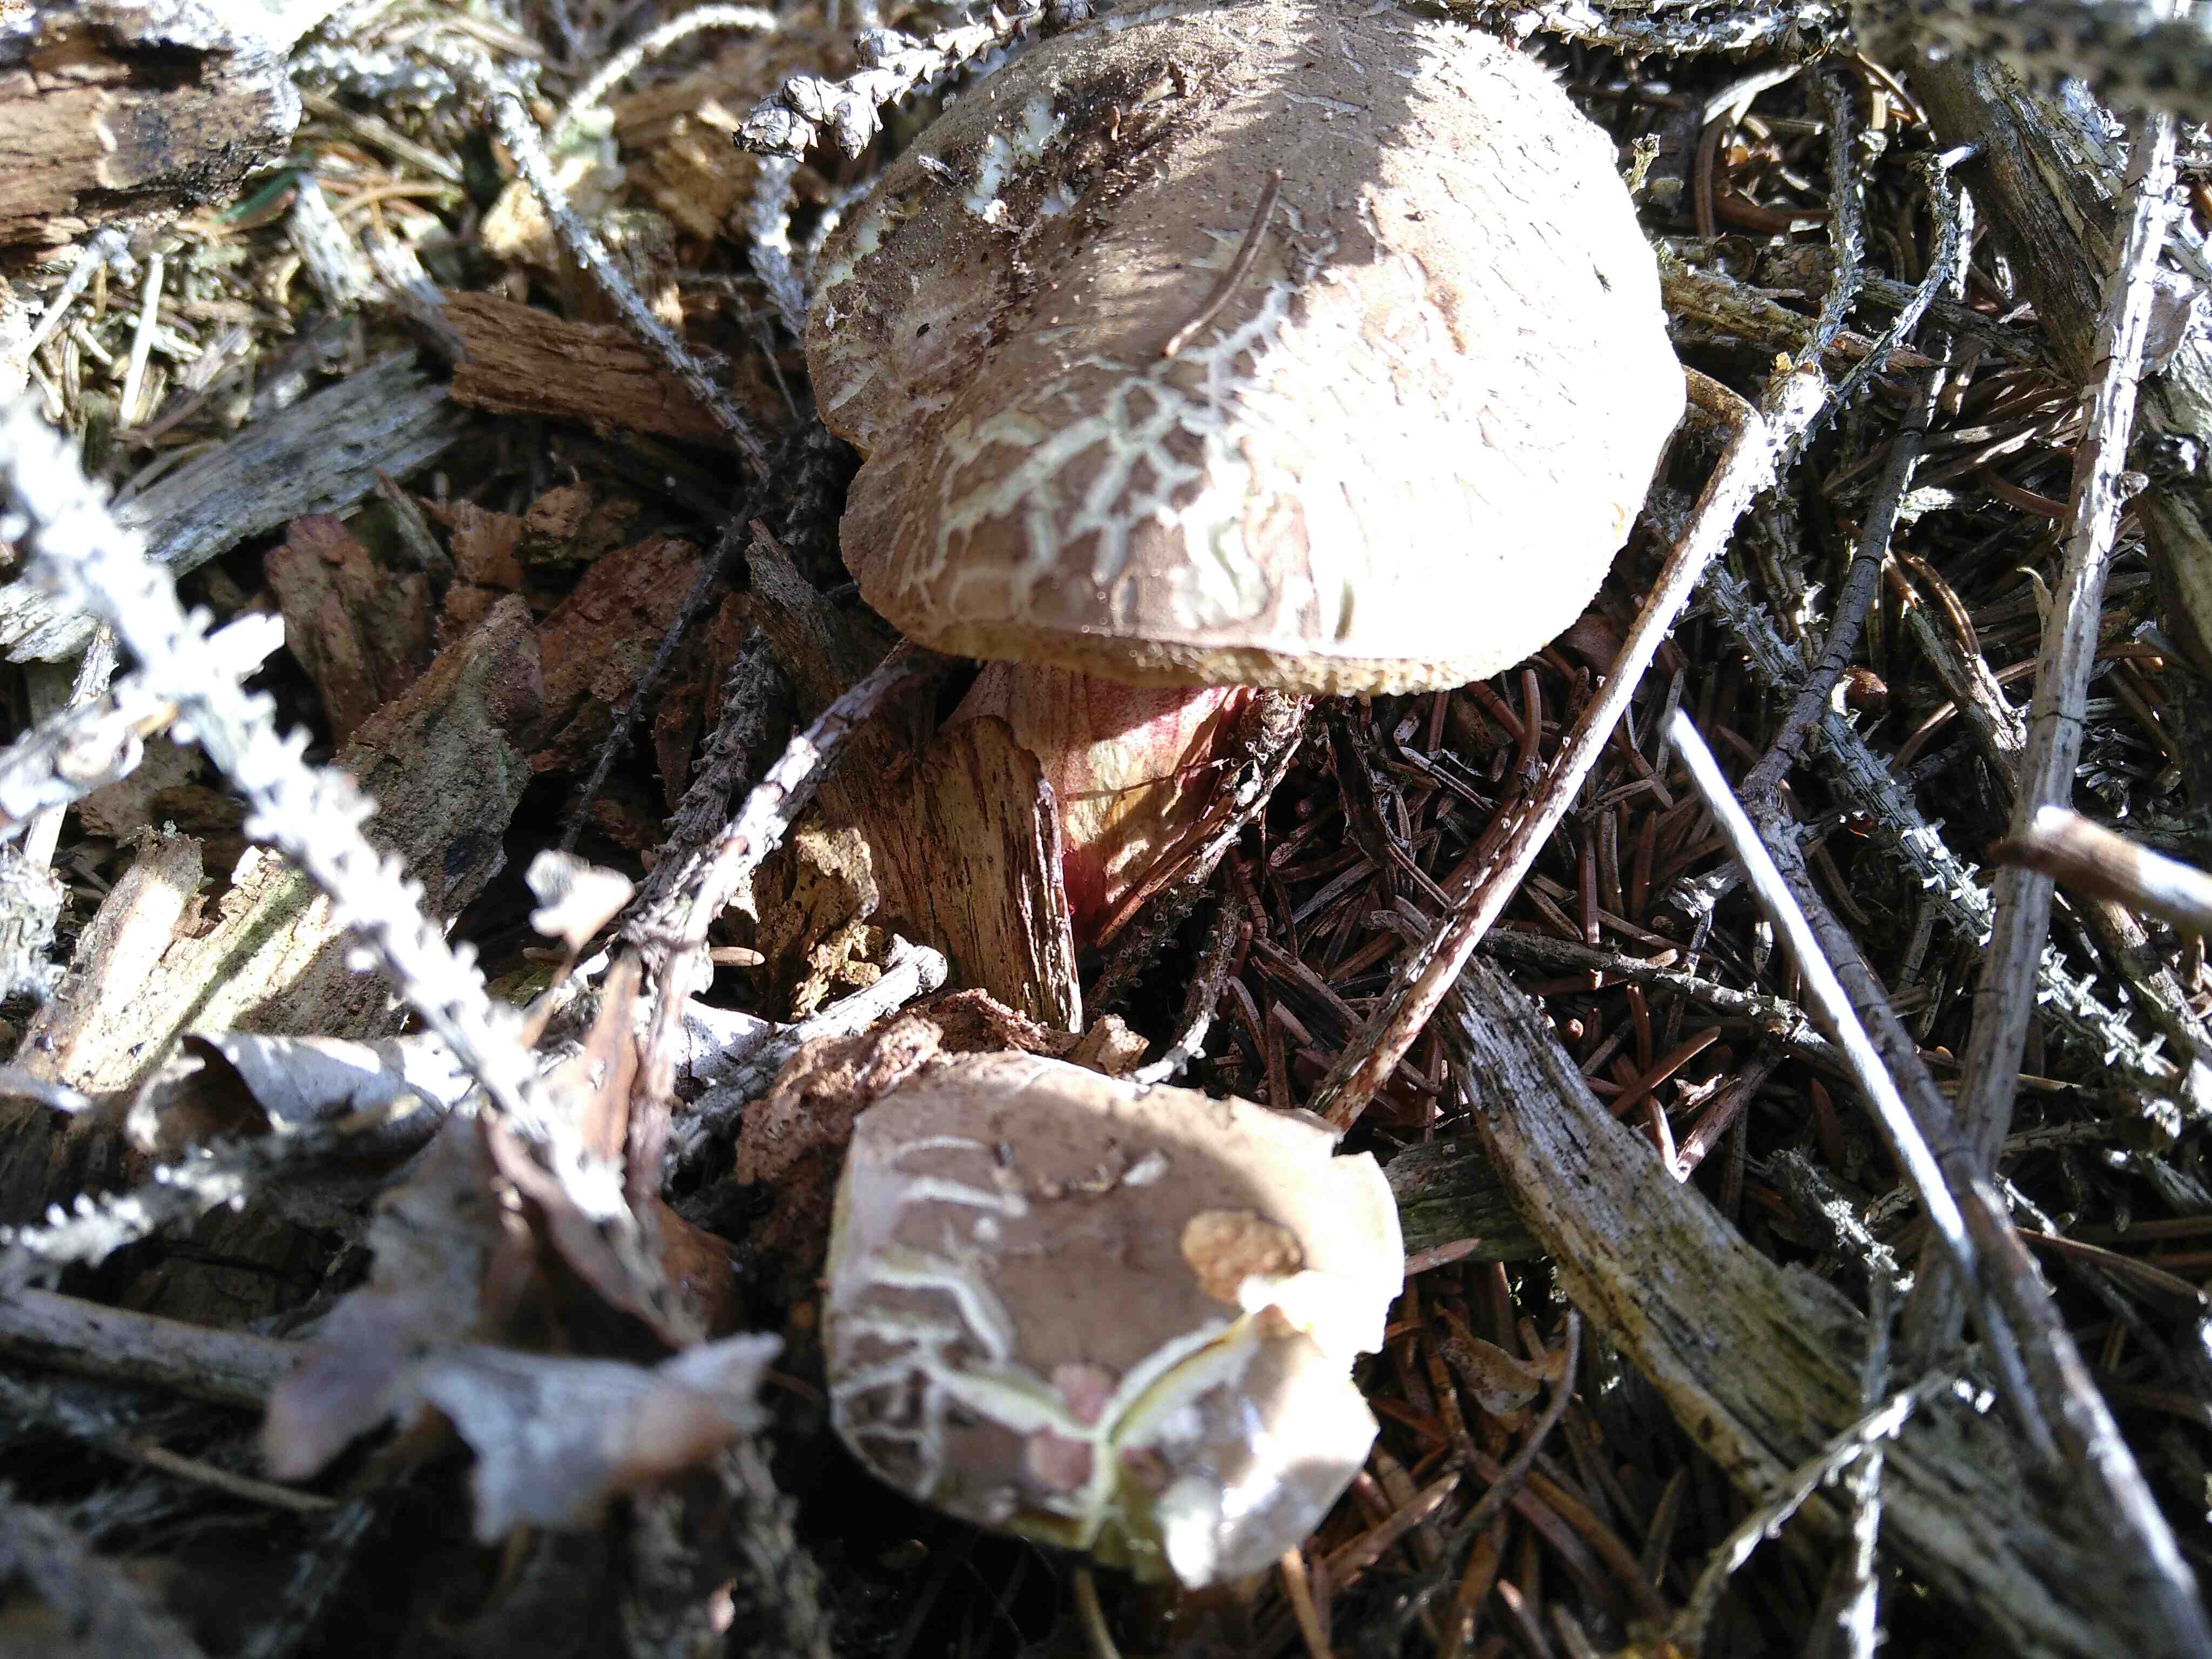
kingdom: Fungi
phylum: Basidiomycota
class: Agaricomycetes
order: Boletales
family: Boletaceae
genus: Xerocomellus
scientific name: Xerocomellus chrysenteron
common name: rødsprukken rørhat
